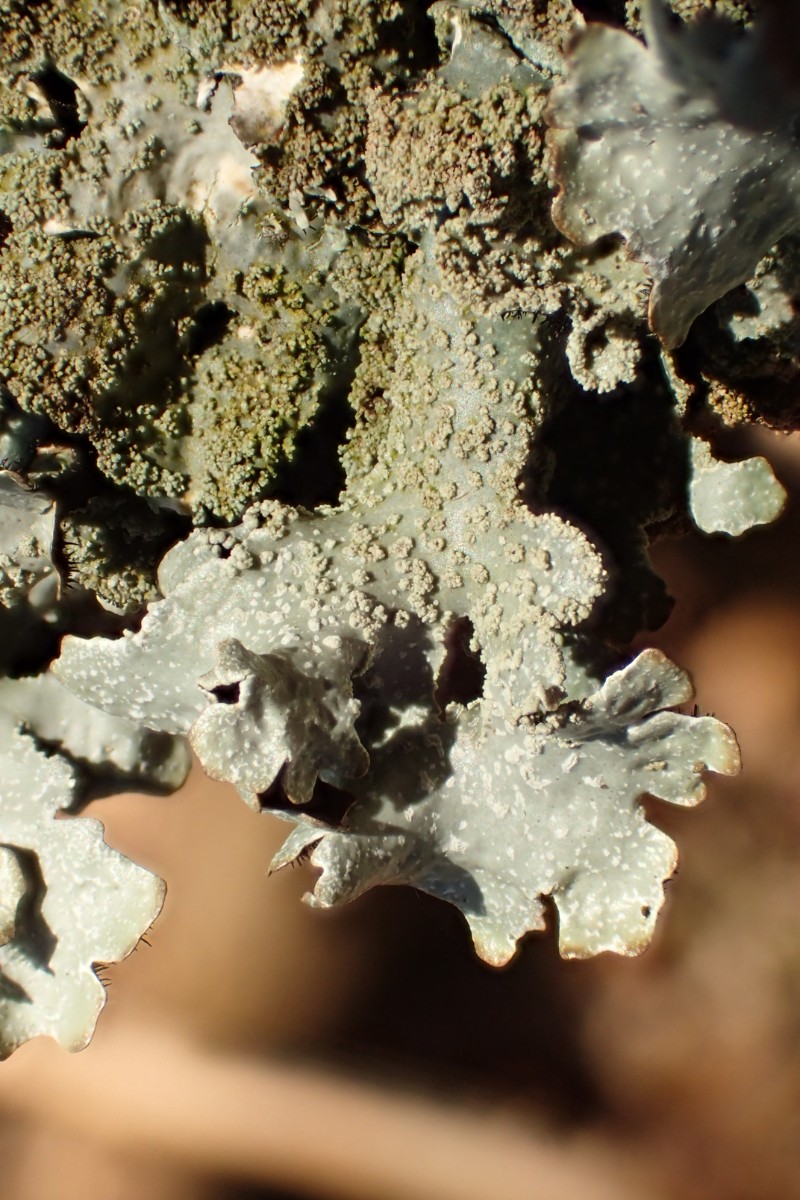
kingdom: Fungi
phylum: Ascomycota
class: Lecanoromycetes
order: Lecanorales
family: Parmeliaceae
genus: Parmelia
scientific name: Parmelia submontana
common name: langlobet skållav
